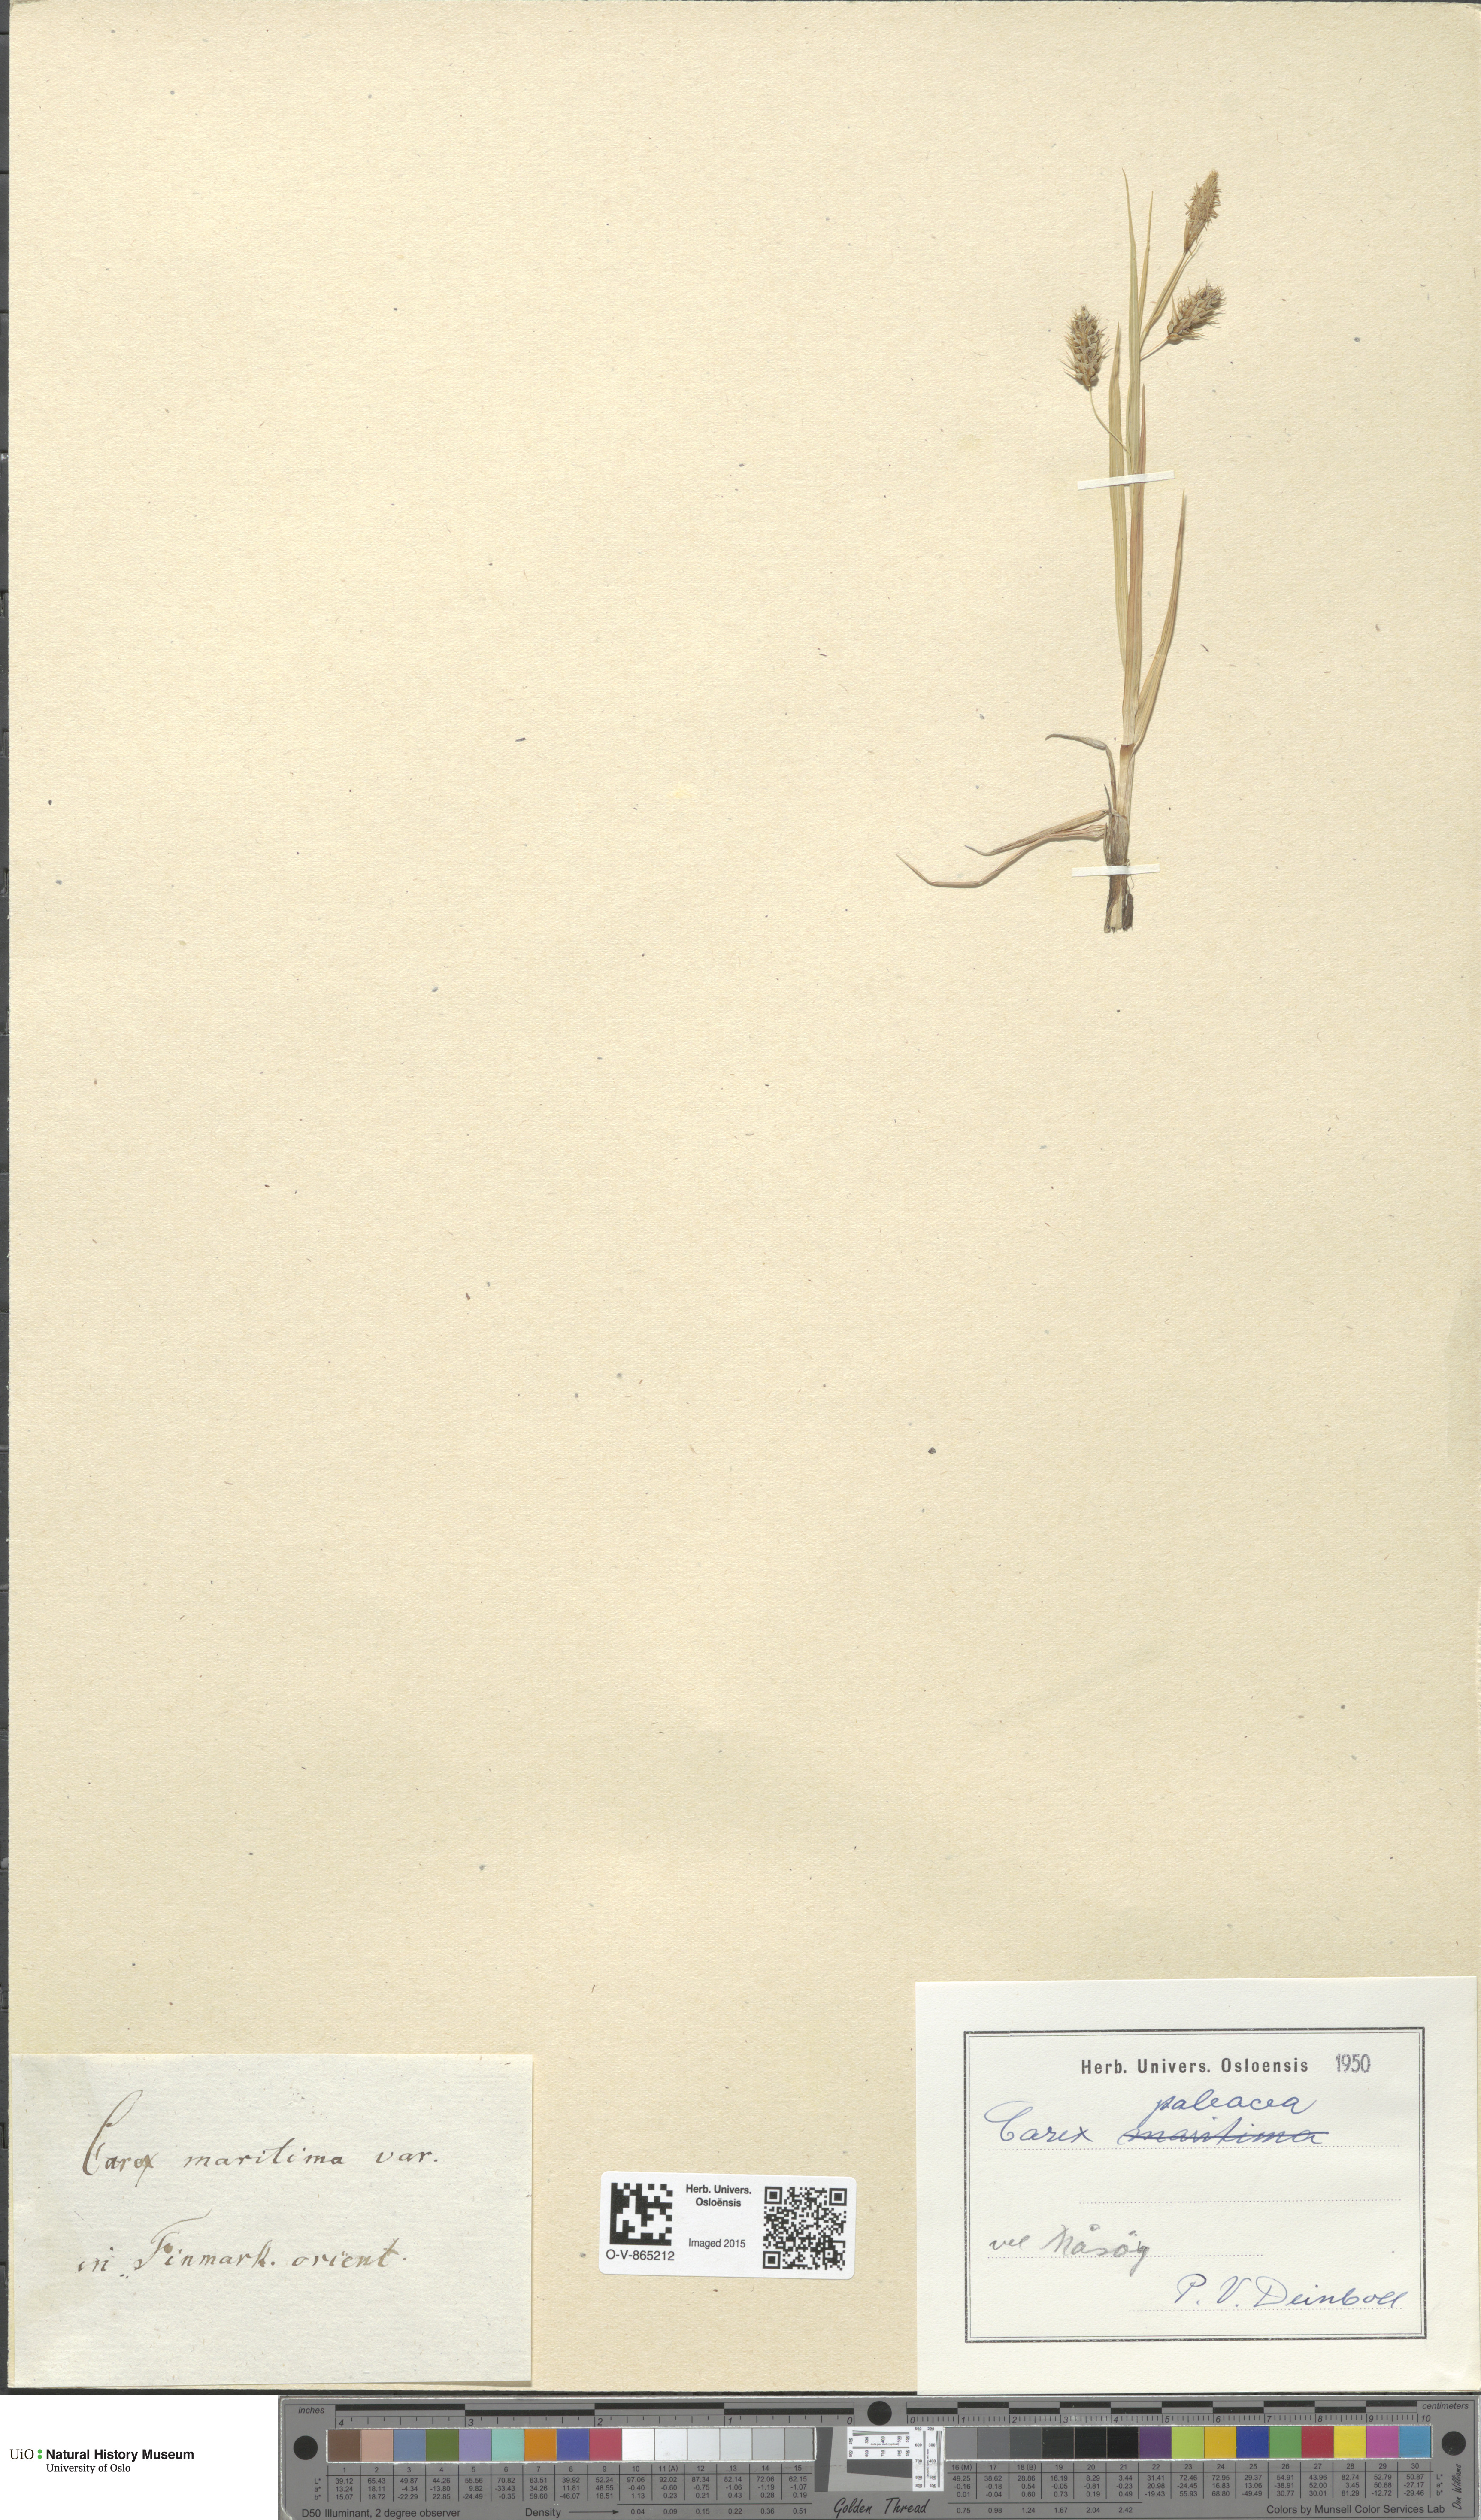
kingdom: Plantae
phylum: Tracheophyta
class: Liliopsida
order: Poales
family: Cyperaceae
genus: Carex
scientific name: Carex paleacea
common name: Chaffy sedge
